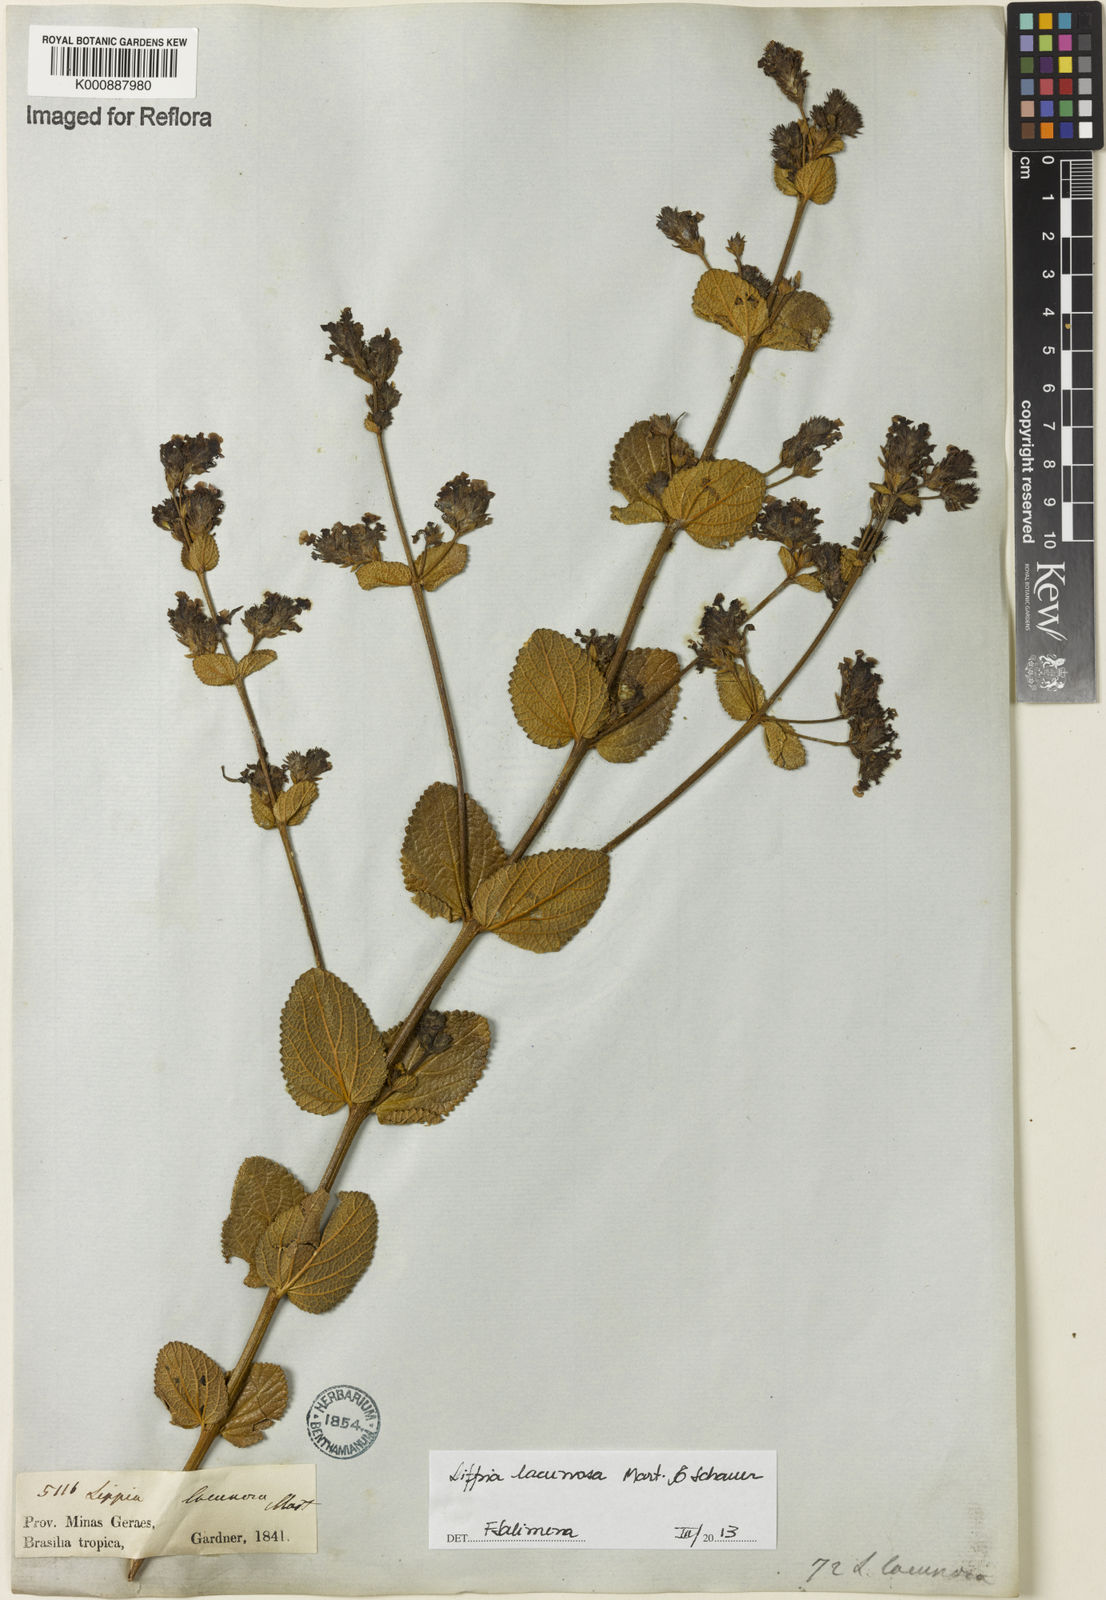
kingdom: Plantae
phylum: Tracheophyta
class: Magnoliopsida
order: Lamiales
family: Verbenaceae
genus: Lippia
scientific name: Lippia lacunosa
